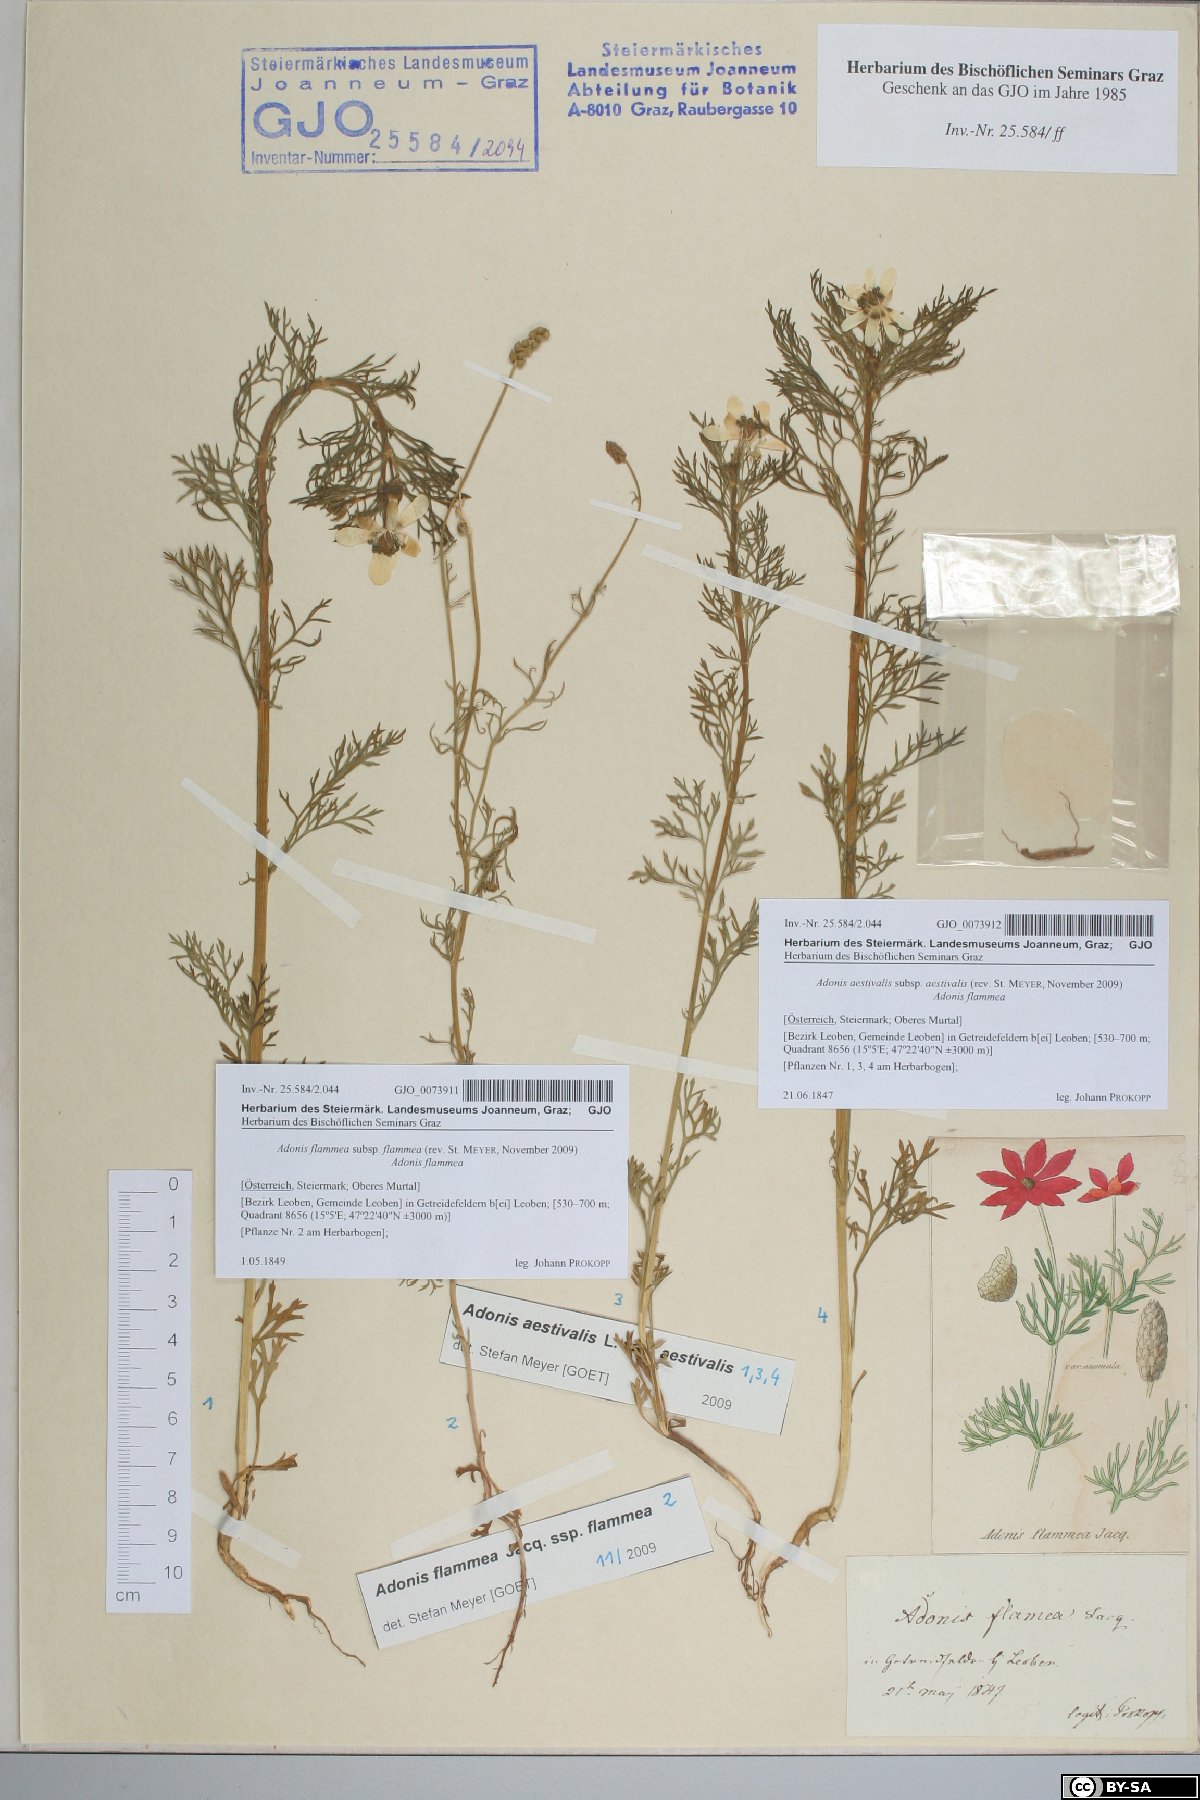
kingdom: Plantae
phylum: Tracheophyta
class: Magnoliopsida
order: Ranunculales
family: Ranunculaceae
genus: Adonis
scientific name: Adonis flammea
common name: Large pheasant's-eye
